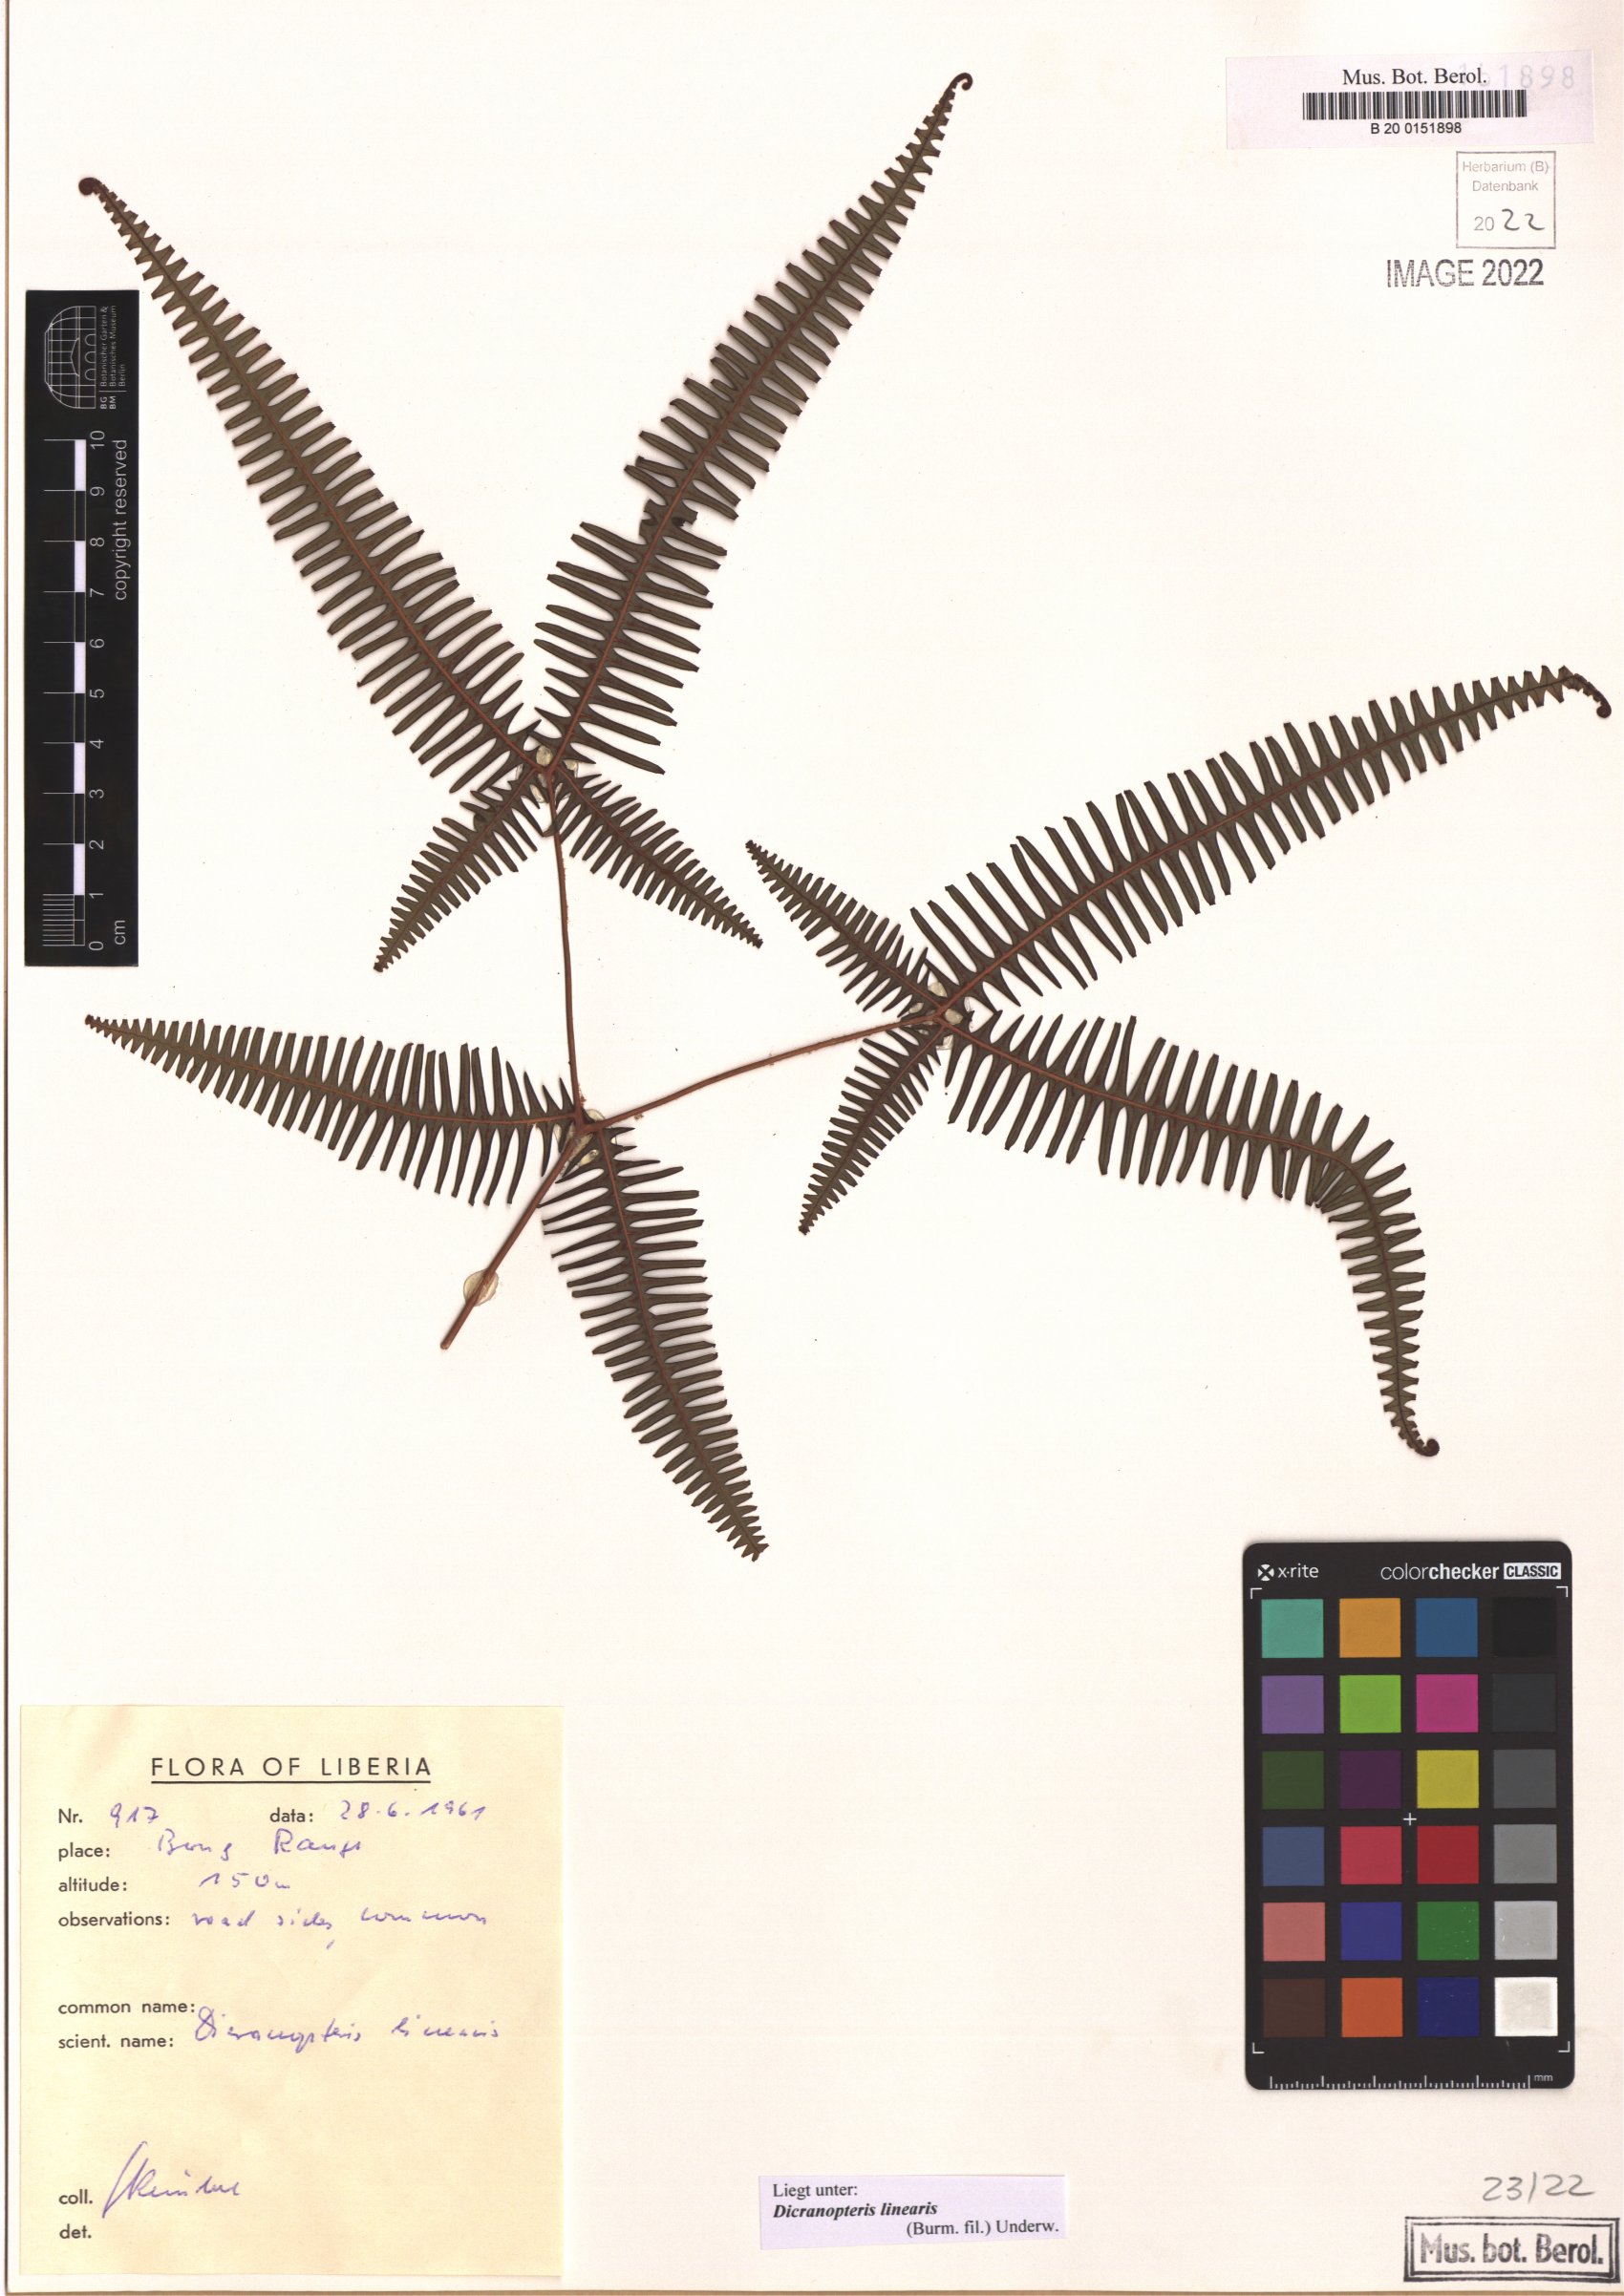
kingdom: Plantae
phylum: Tracheophyta
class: Polypodiopsida
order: Gleicheniales
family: Gleicheniaceae
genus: Dicranopteris
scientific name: Dicranopteris linearis
